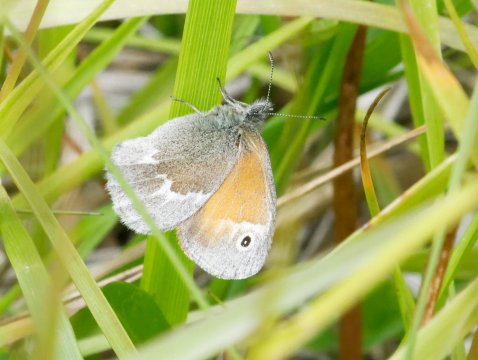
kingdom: Animalia
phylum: Arthropoda
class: Insecta
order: Lepidoptera
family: Nymphalidae
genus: Coenonympha
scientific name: Coenonympha tullia
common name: Large Heath
